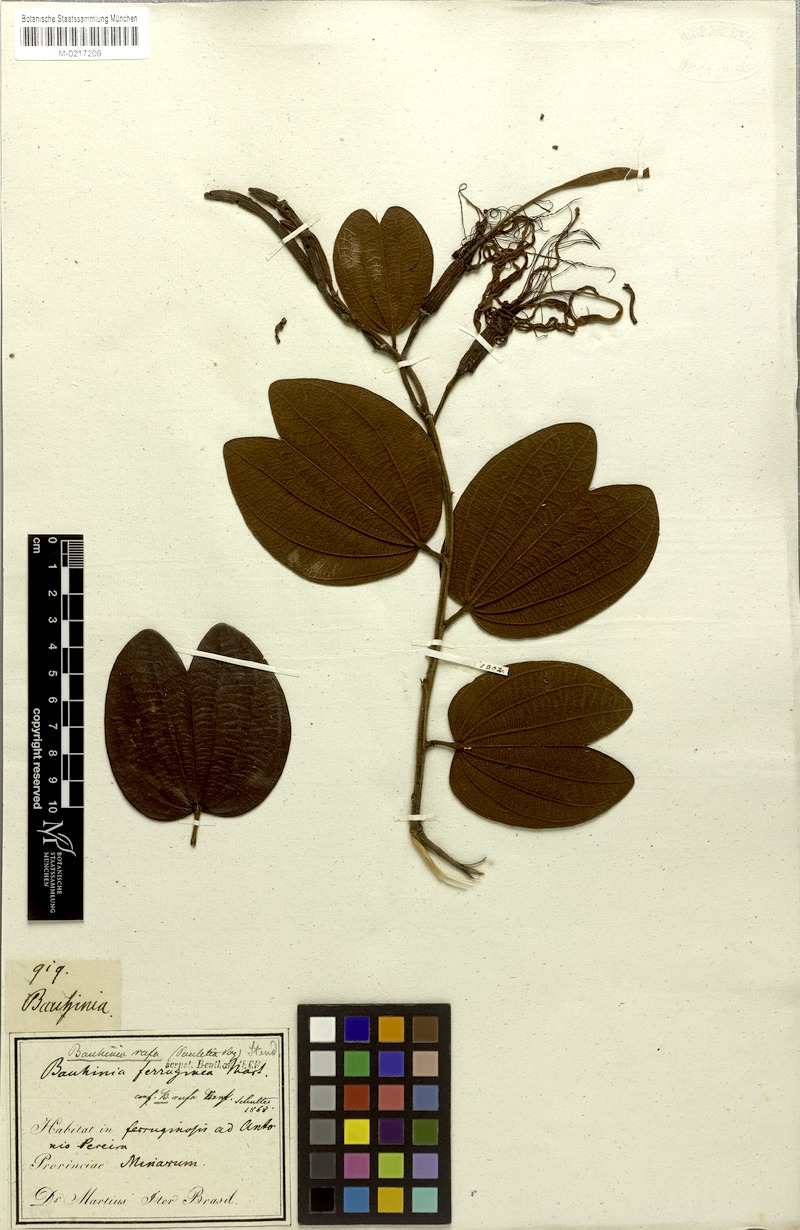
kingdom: Plantae
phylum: Tracheophyta
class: Magnoliopsida
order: Fabales
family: Fabaceae
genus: Bauhinia
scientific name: Bauhinia rufa
